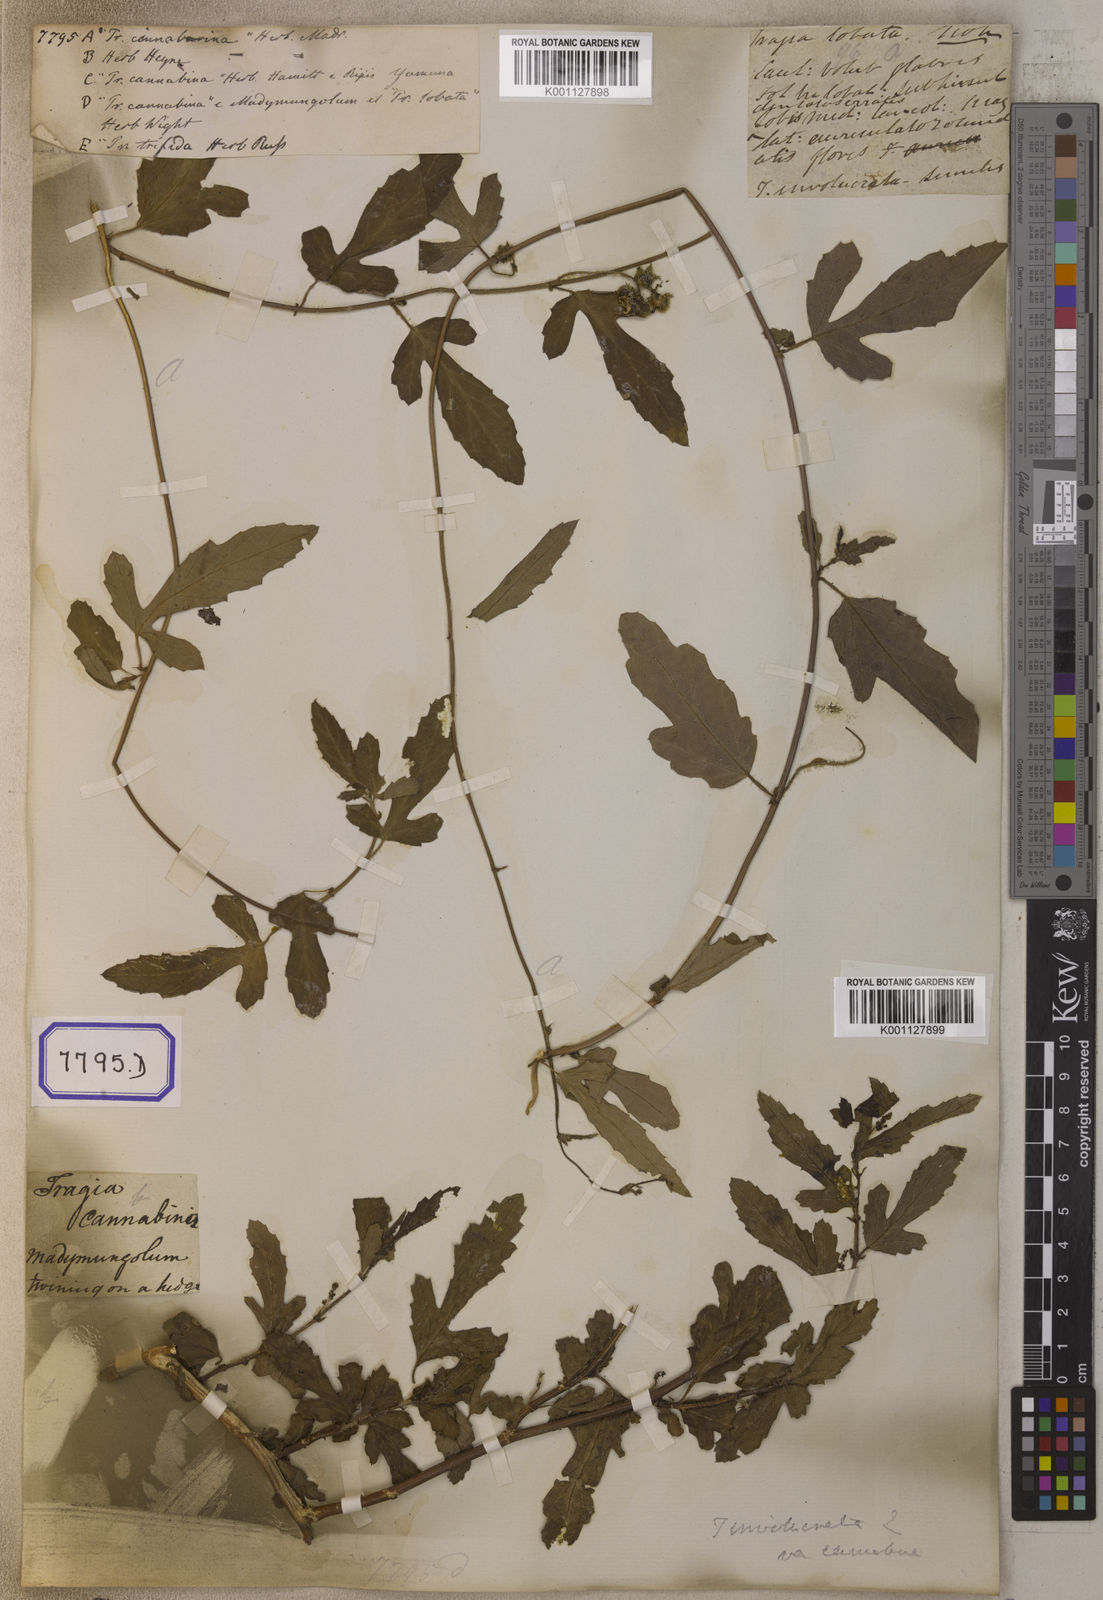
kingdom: Plantae
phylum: Tracheophyta
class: Magnoliopsida
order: Malpighiales
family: Euphorbiaceae
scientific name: Euphorbiaceae
